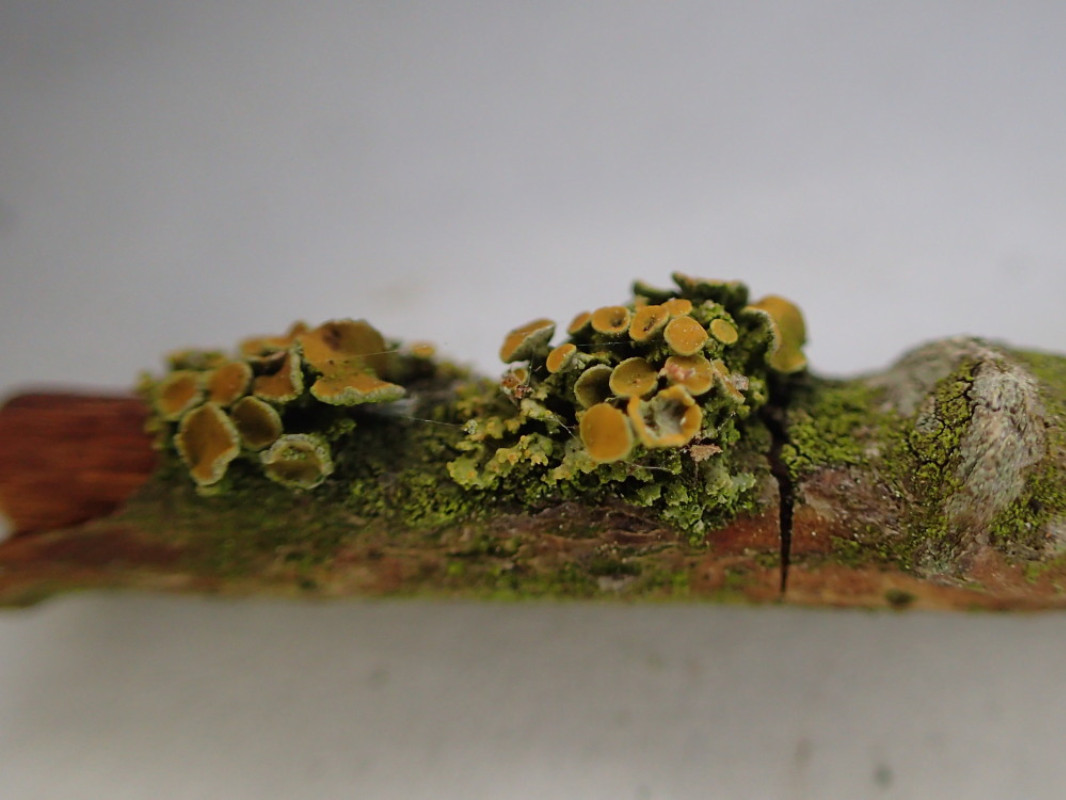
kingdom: Fungi
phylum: Ascomycota
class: Lecanoromycetes
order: Teloschistales
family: Teloschistaceae
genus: Polycauliona
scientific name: Polycauliona polycarpa
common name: mangefrugtet orangelav
